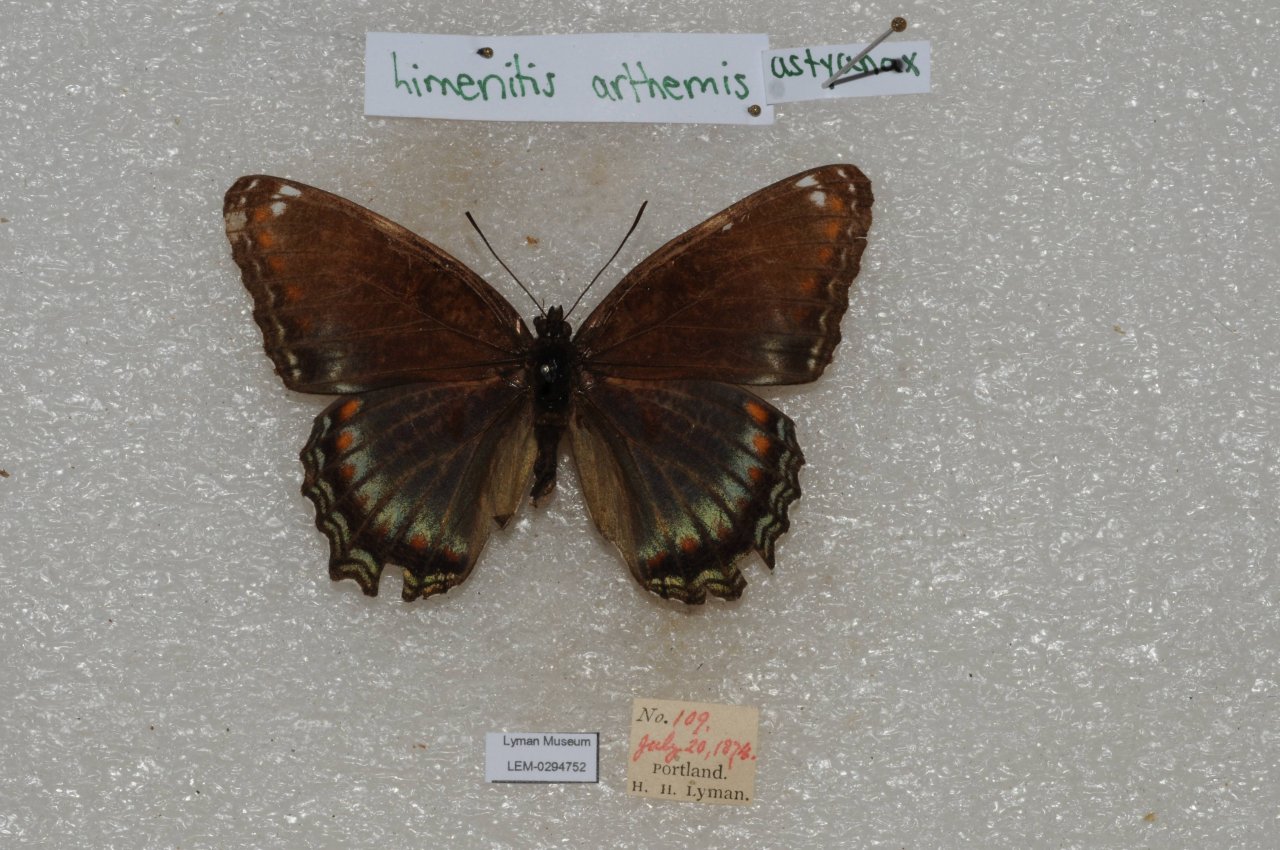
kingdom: Animalia
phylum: Arthropoda
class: Insecta
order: Lepidoptera
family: Nymphalidae
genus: Limenitis
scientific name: Limenitis astyanax
